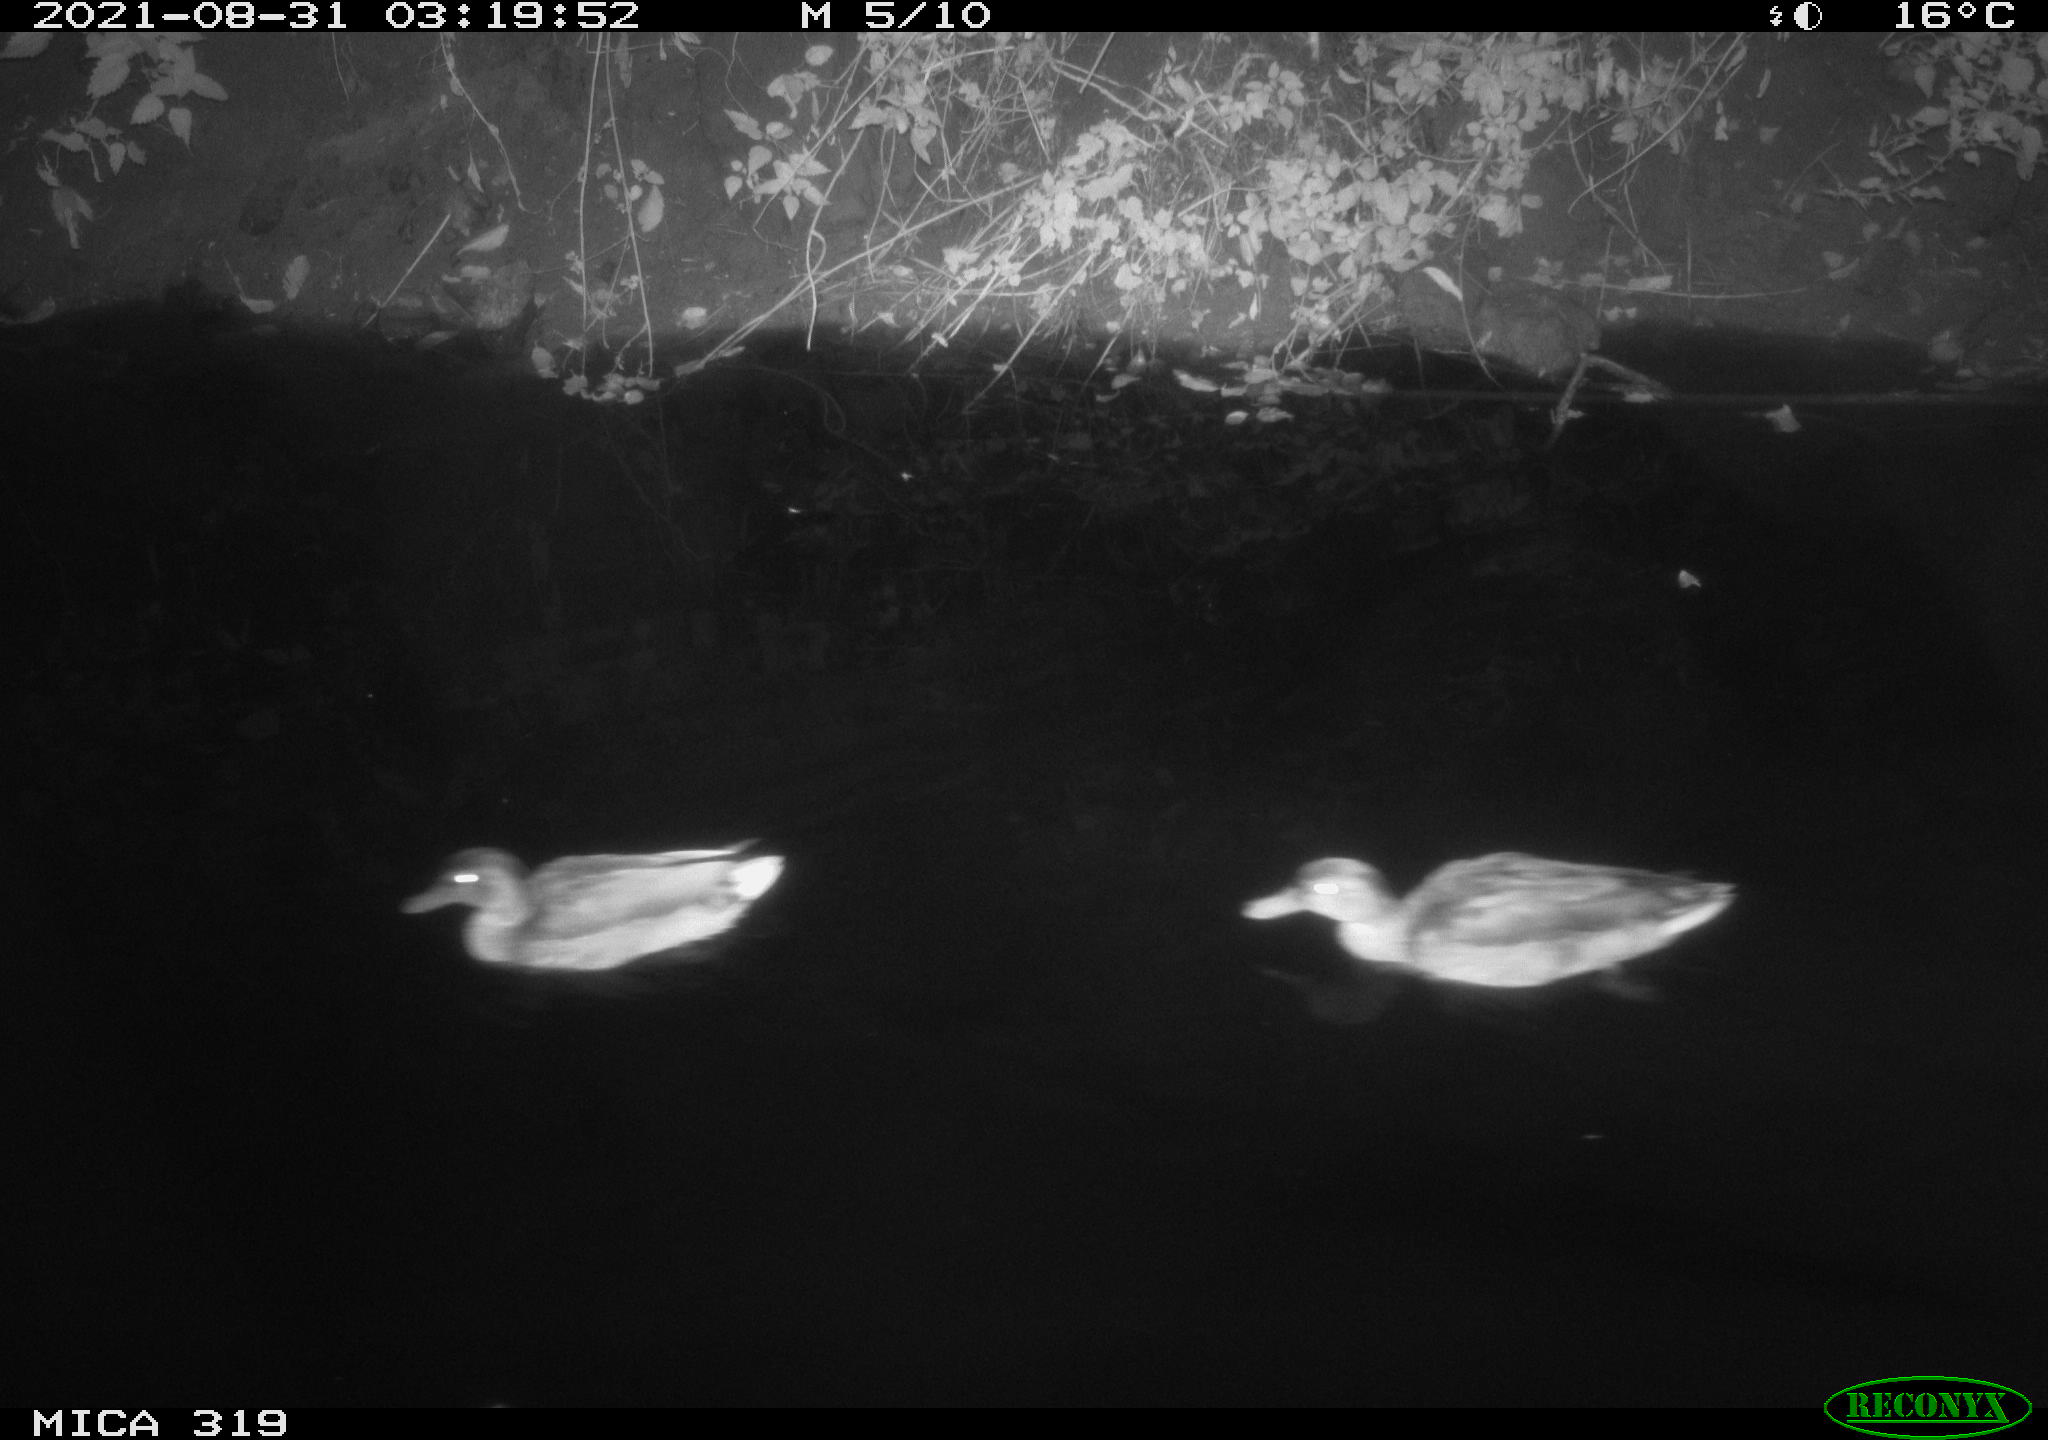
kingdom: Animalia
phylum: Chordata
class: Aves
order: Anseriformes
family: Anatidae
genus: Anas
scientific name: Anas platyrhynchos
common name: Mallard
